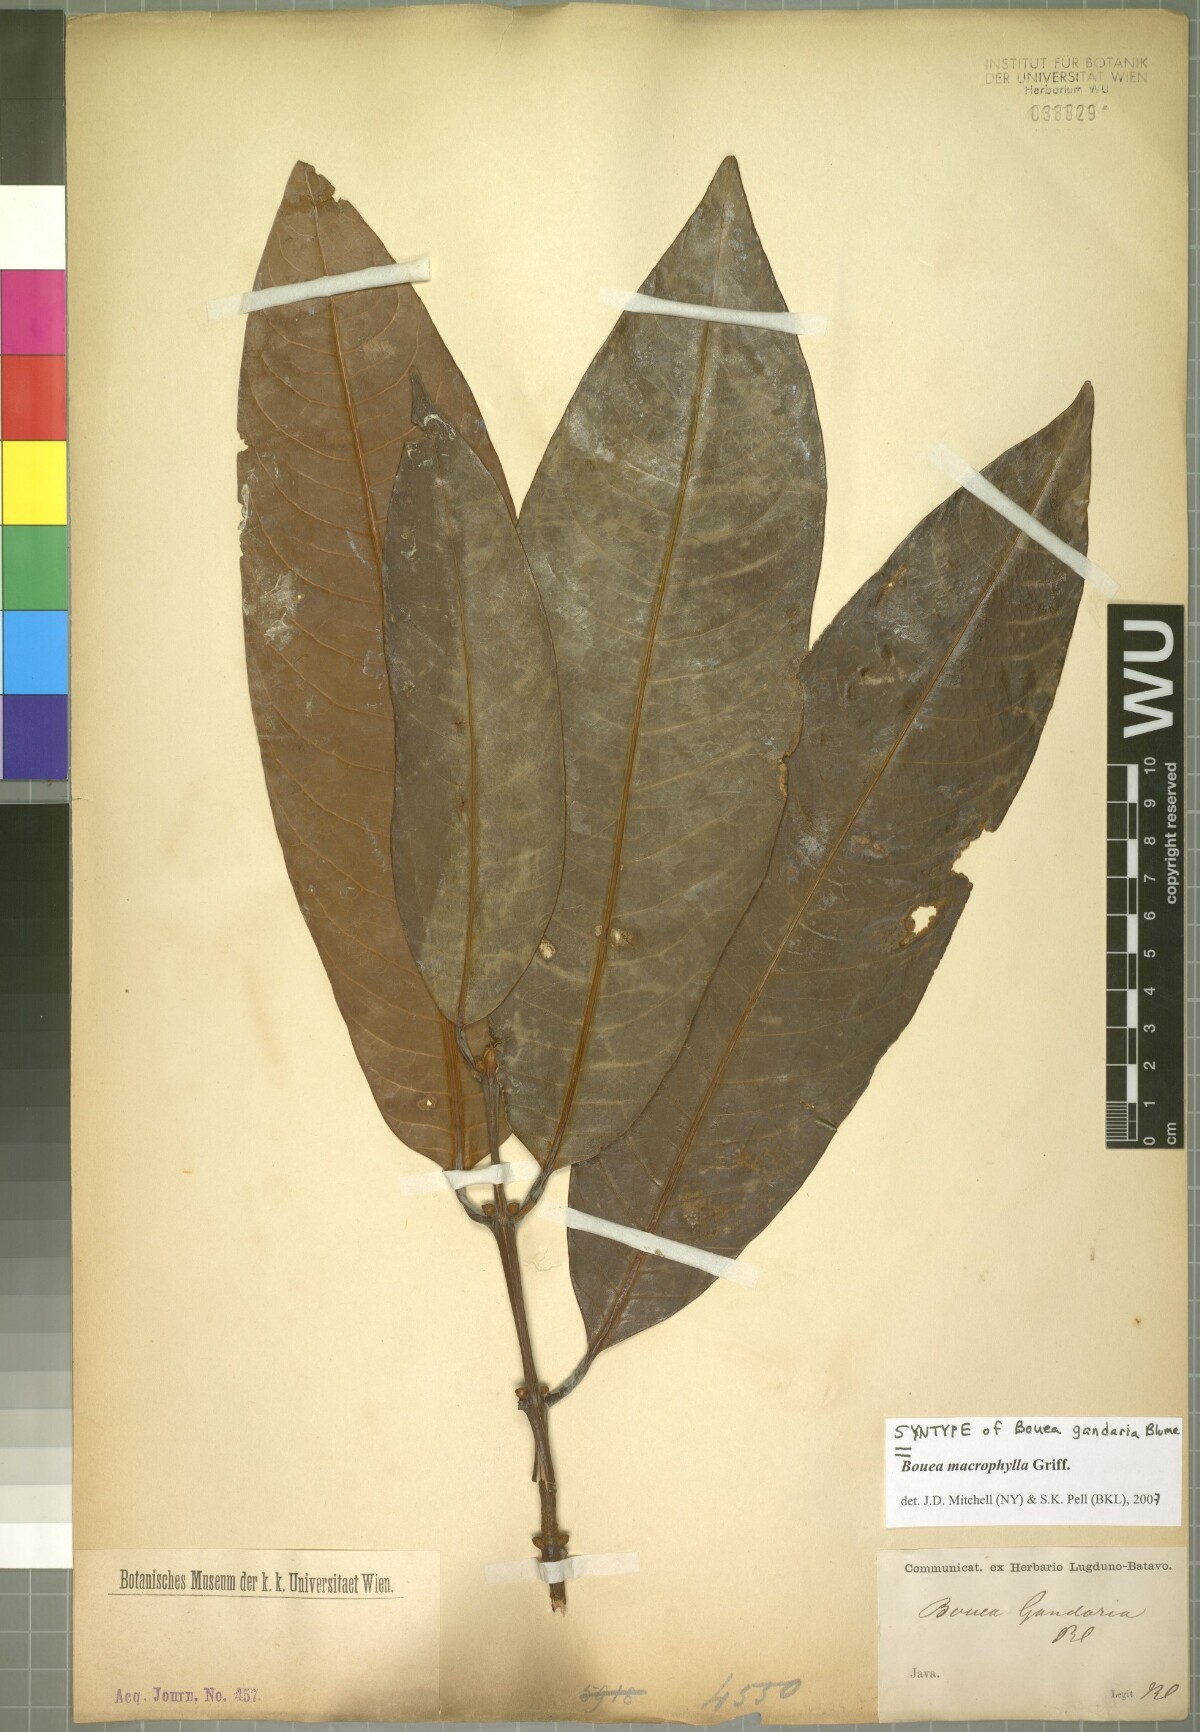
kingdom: Plantae
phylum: Tracheophyta
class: Magnoliopsida
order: Sapindales
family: Anacardiaceae
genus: Bouea
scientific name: Bouea macrophylla
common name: Gandaria
